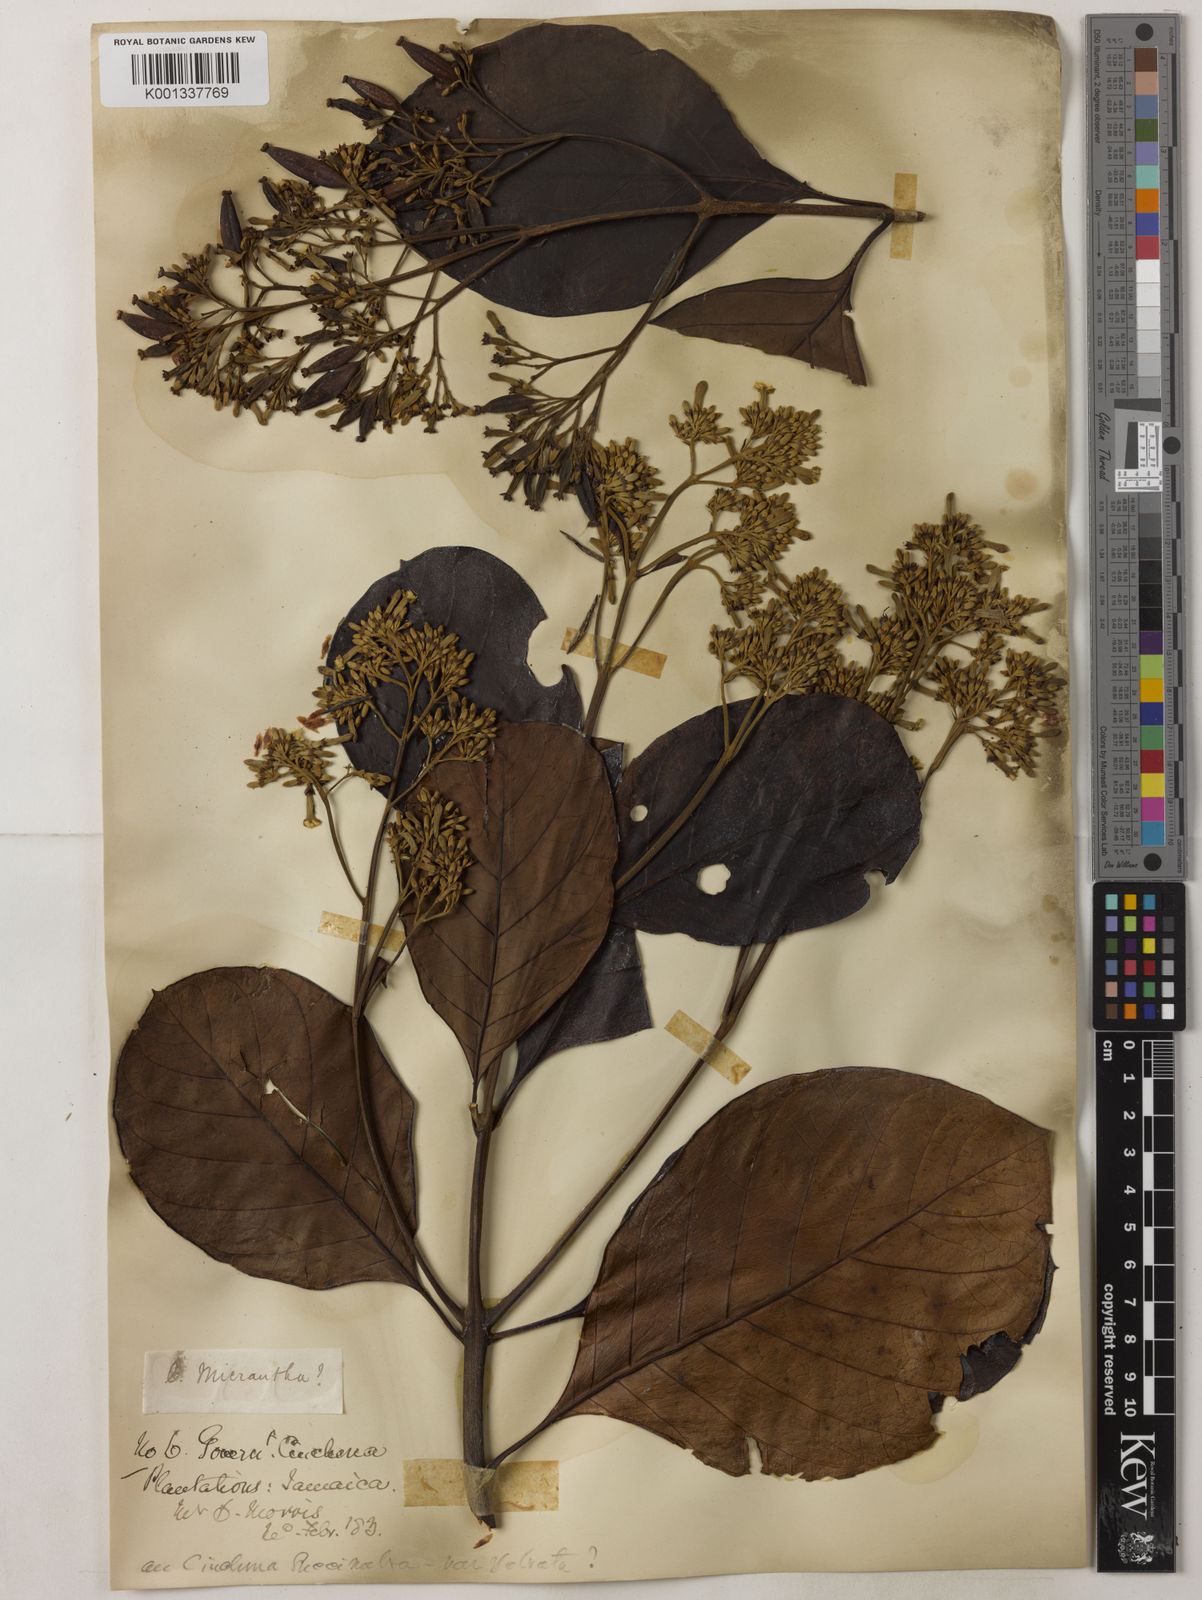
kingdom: Plantae
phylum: Tracheophyta
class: Magnoliopsida
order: Gentianales
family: Rubiaceae
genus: Cinchona
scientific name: Cinchona micrantha
